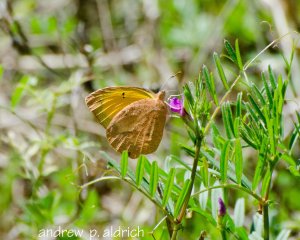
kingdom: Animalia
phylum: Arthropoda
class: Insecta
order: Lepidoptera
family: Pieridae
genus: Abaeis
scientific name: Abaeis nicippe
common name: Sleepy Orange
